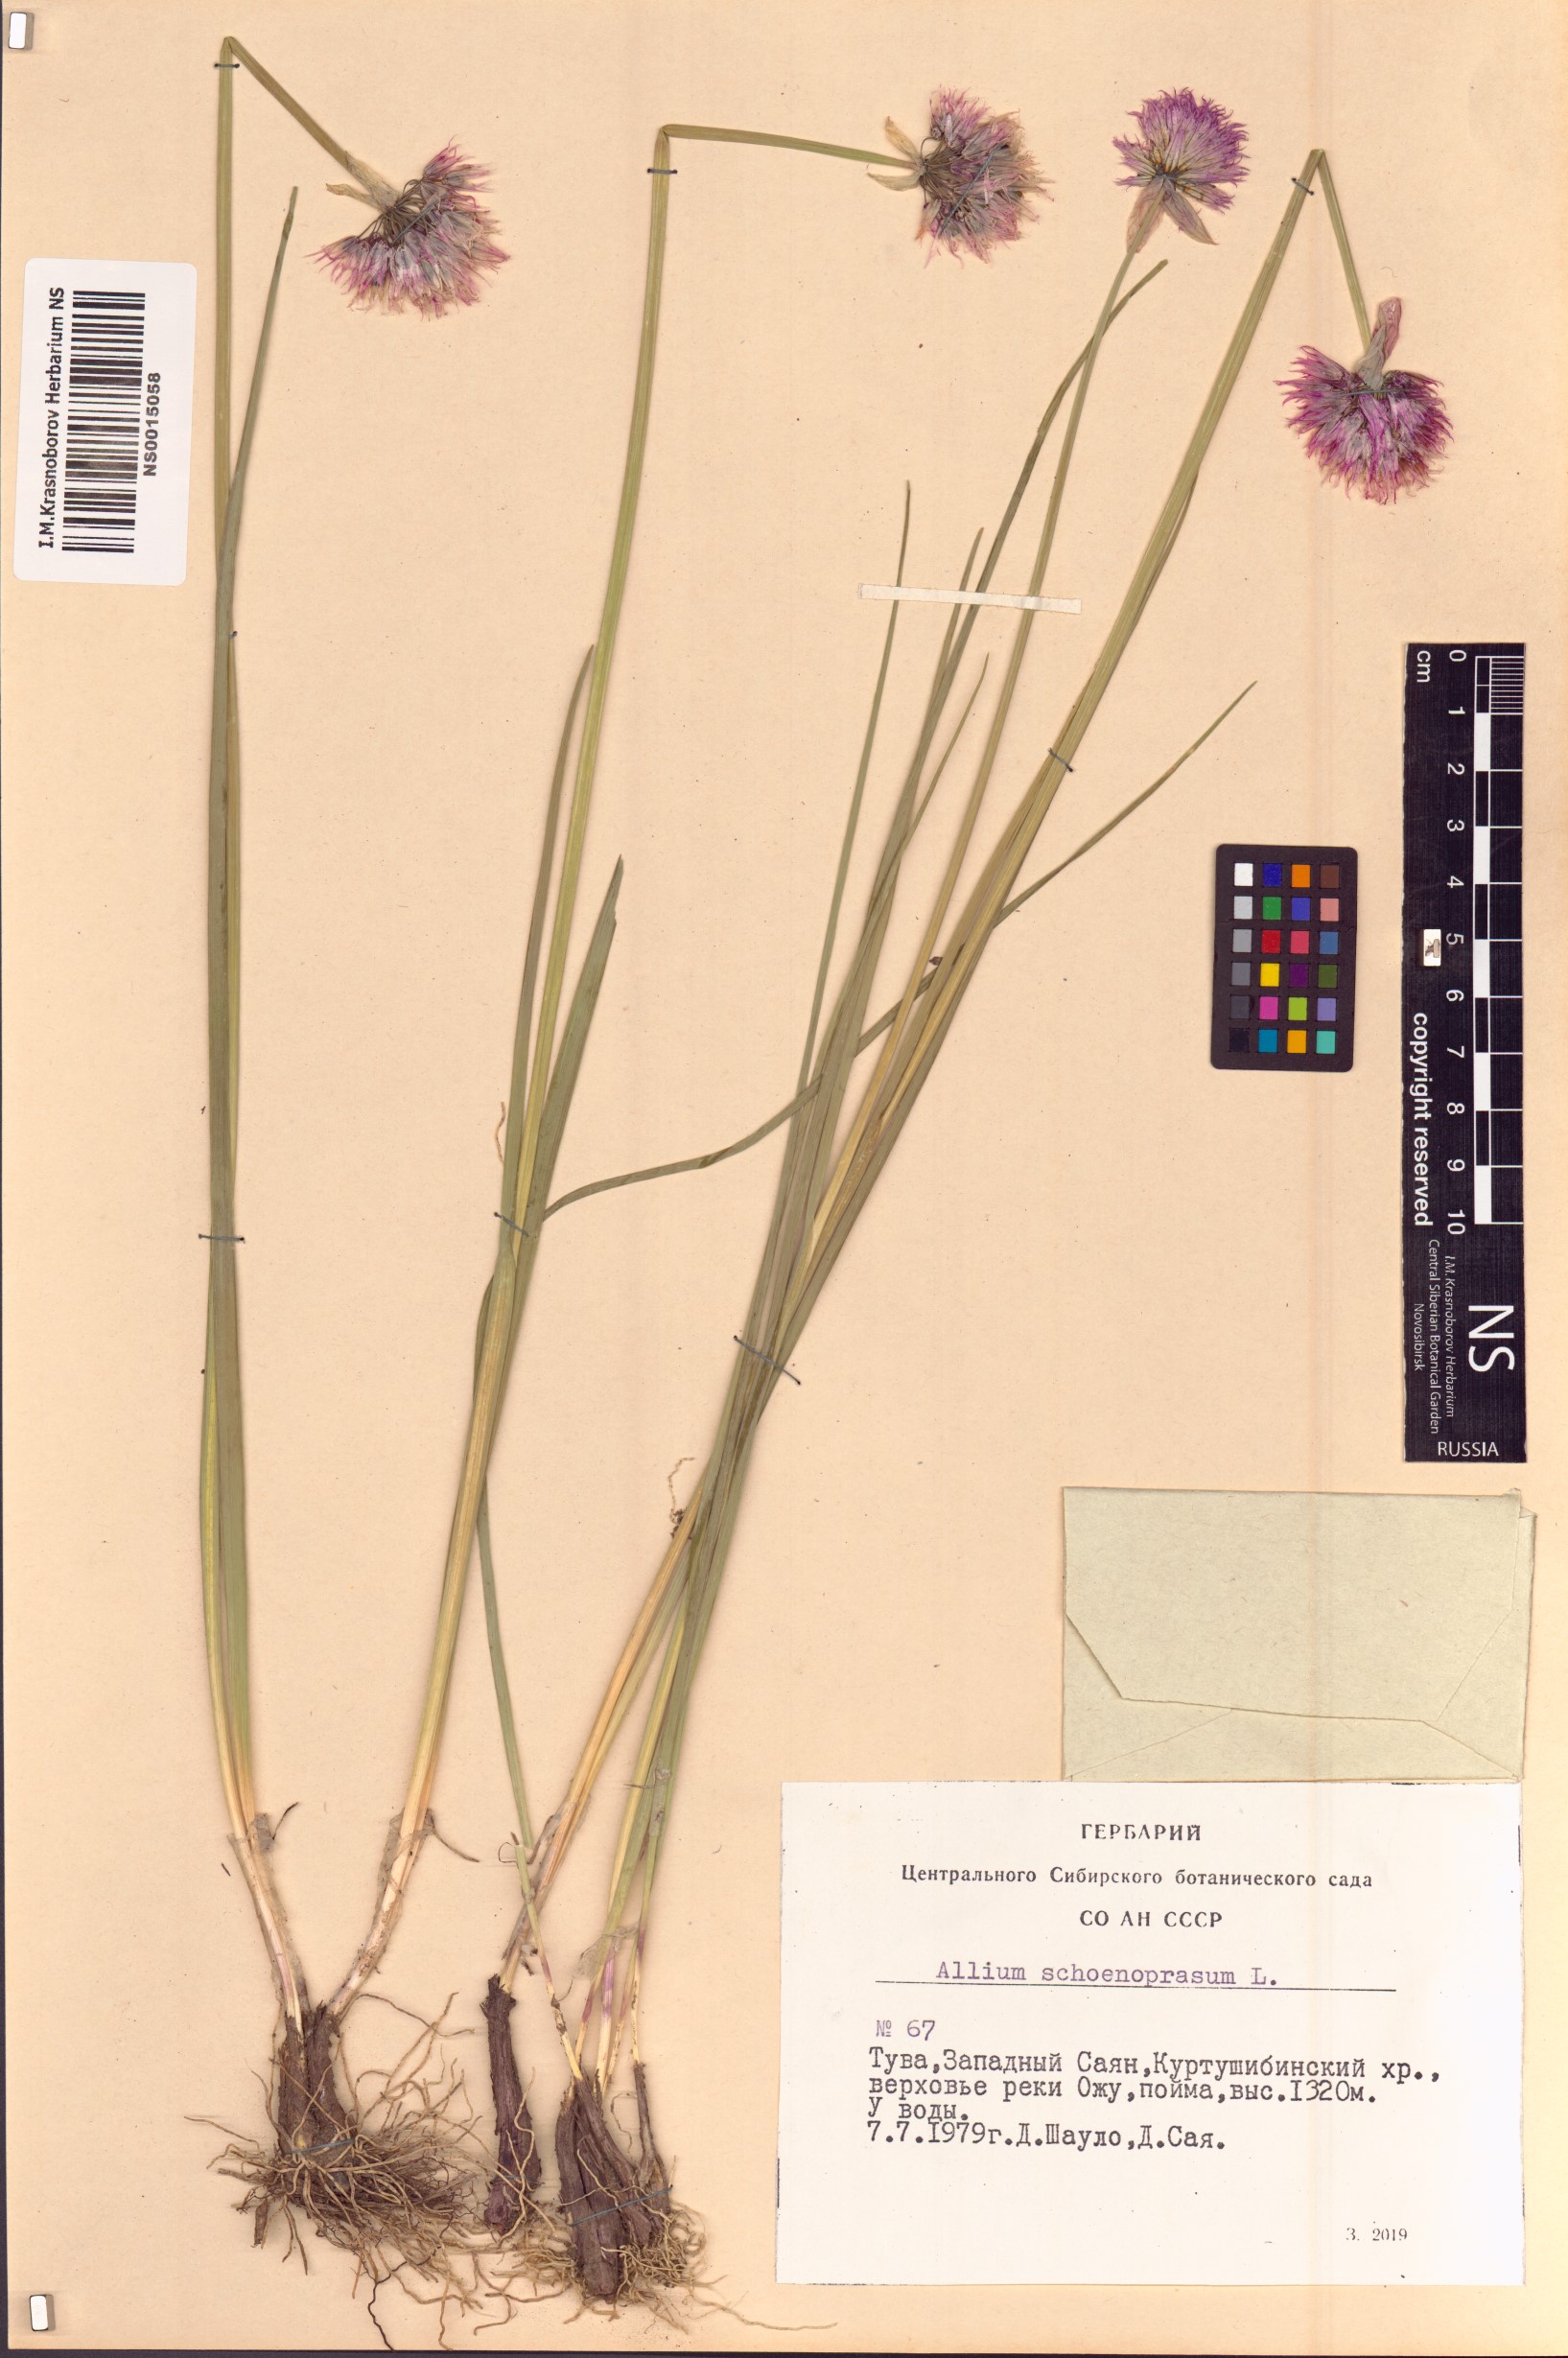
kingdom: Plantae
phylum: Tracheophyta
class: Liliopsida
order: Asparagales
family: Amaryllidaceae
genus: Allium
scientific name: Allium schoenoprasum
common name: Chives
